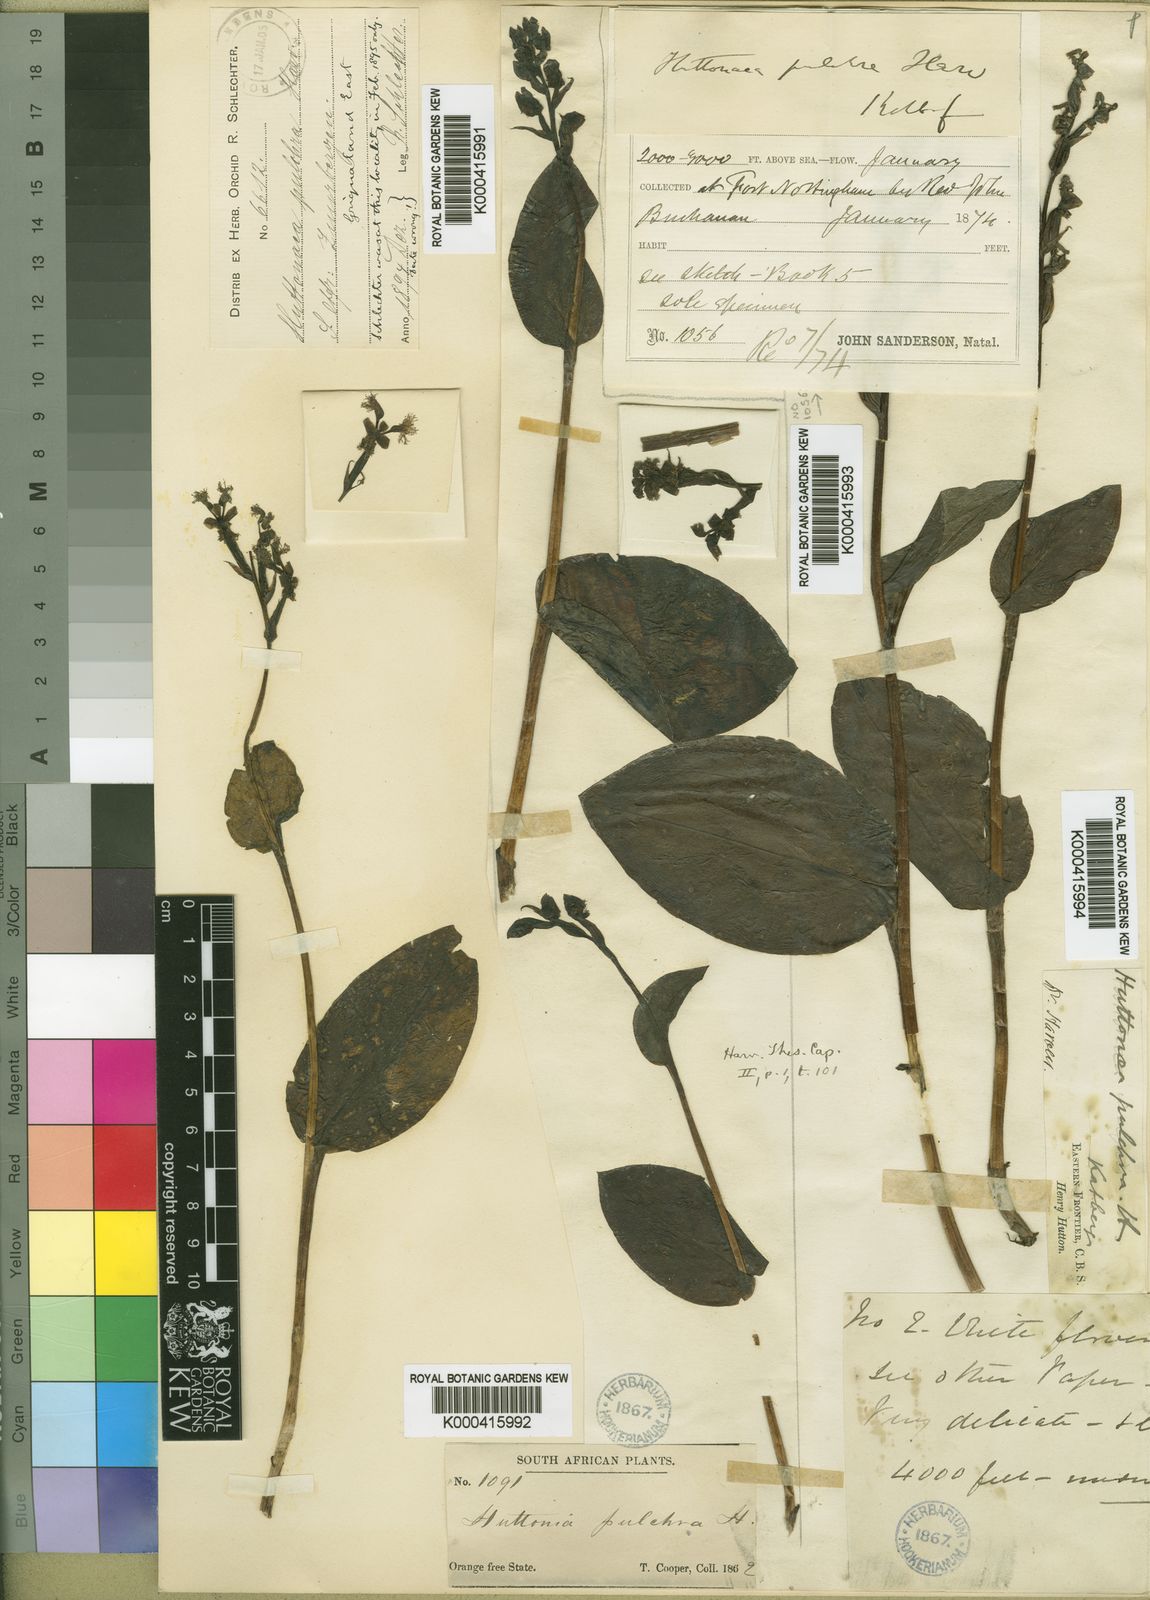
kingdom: Plantae
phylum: Tracheophyta
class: Liliopsida
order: Asparagales
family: Orchidaceae
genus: Huttonaea
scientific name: Huttonaea pulchra
